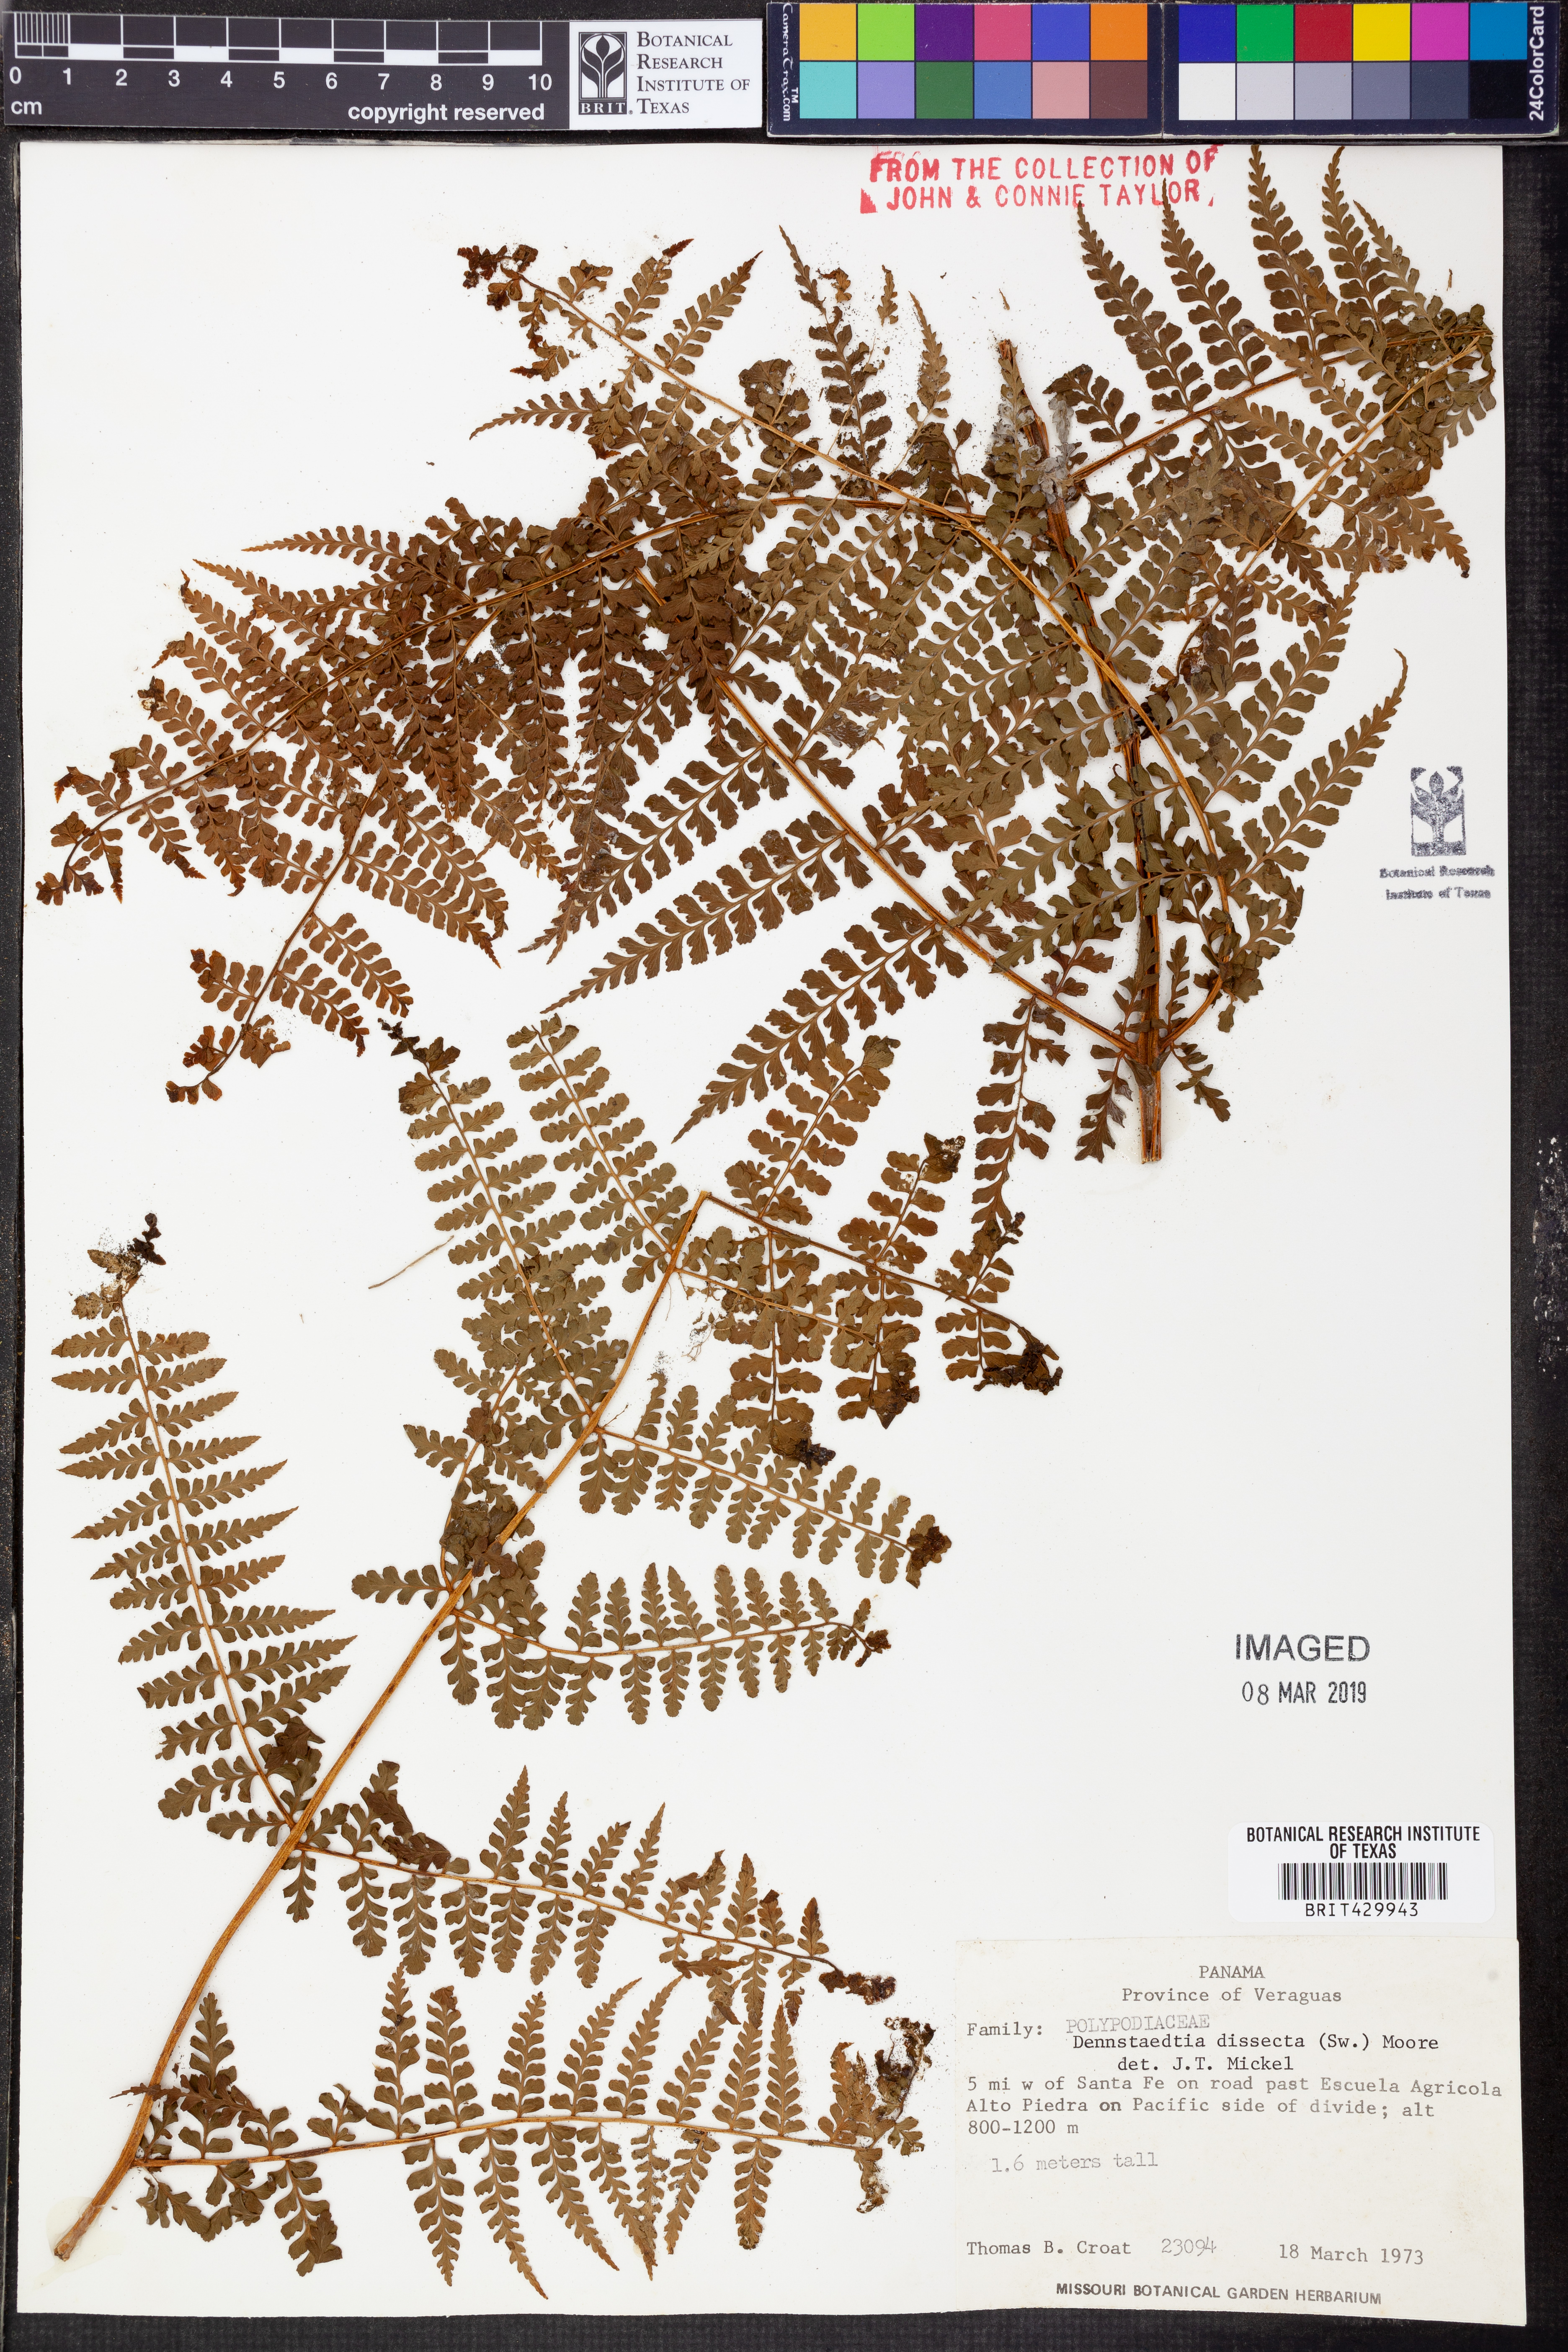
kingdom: Plantae
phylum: Tracheophyta
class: Polypodiopsida
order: Polypodiales
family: Dennstaedtiaceae
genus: Dennstaedtia
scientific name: Dennstaedtia dissecta
